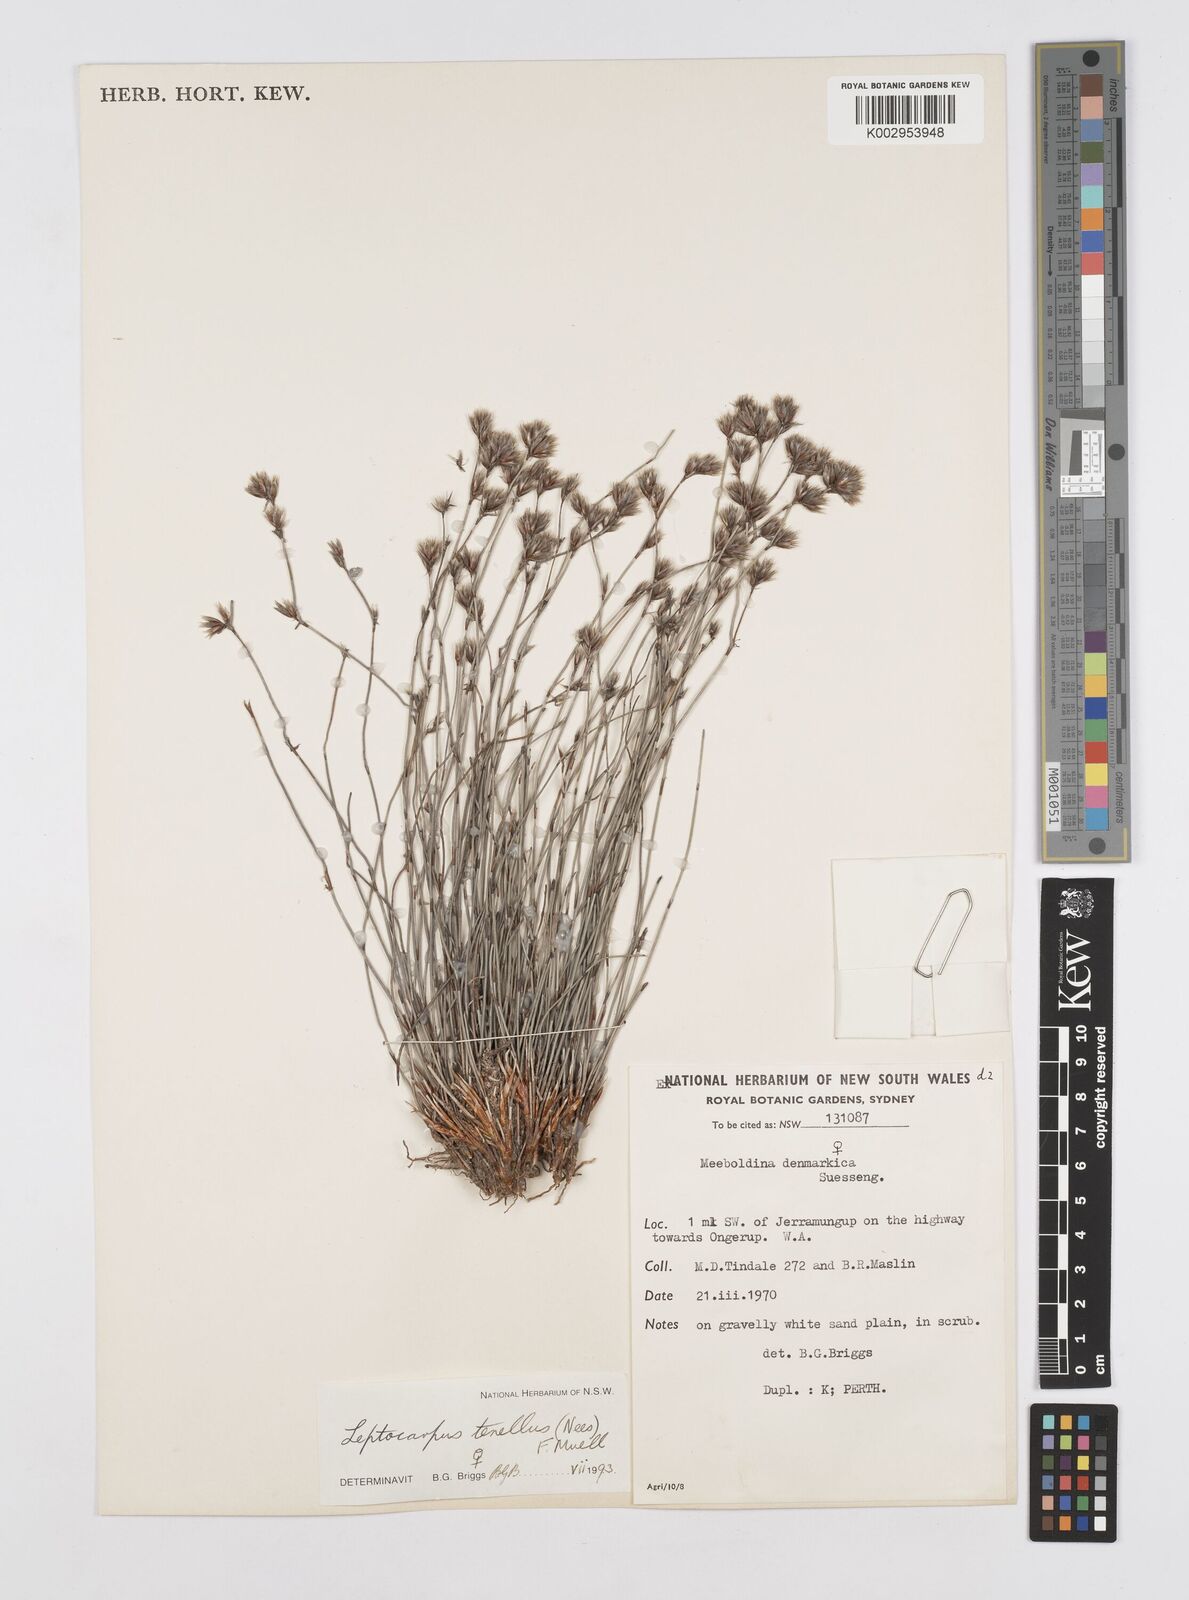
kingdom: Plantae
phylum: Tracheophyta
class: Liliopsida
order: Poales
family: Restionaceae
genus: Chaetanthus
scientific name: Chaetanthus tenellus
